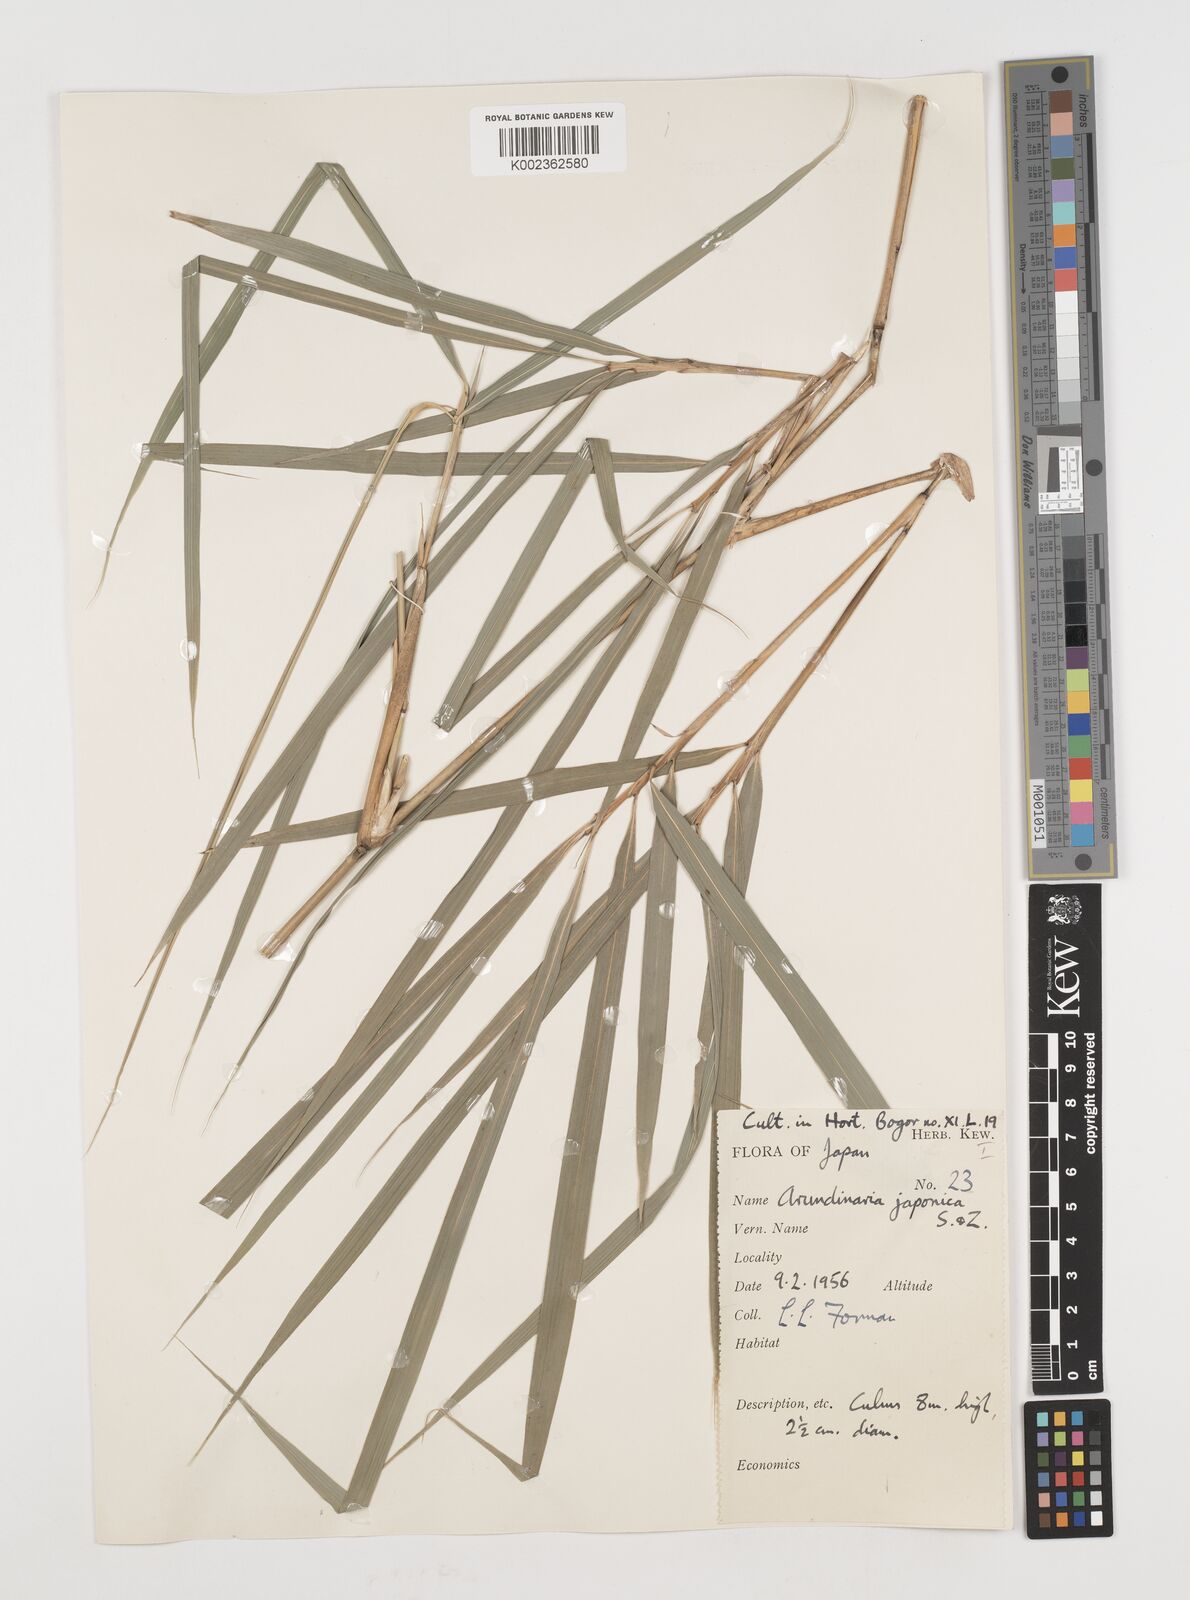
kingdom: Plantae
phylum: Tracheophyta
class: Liliopsida
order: Poales
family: Poaceae
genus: Pseudosasa
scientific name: Pseudosasa japonica
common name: Arrow bamboo
